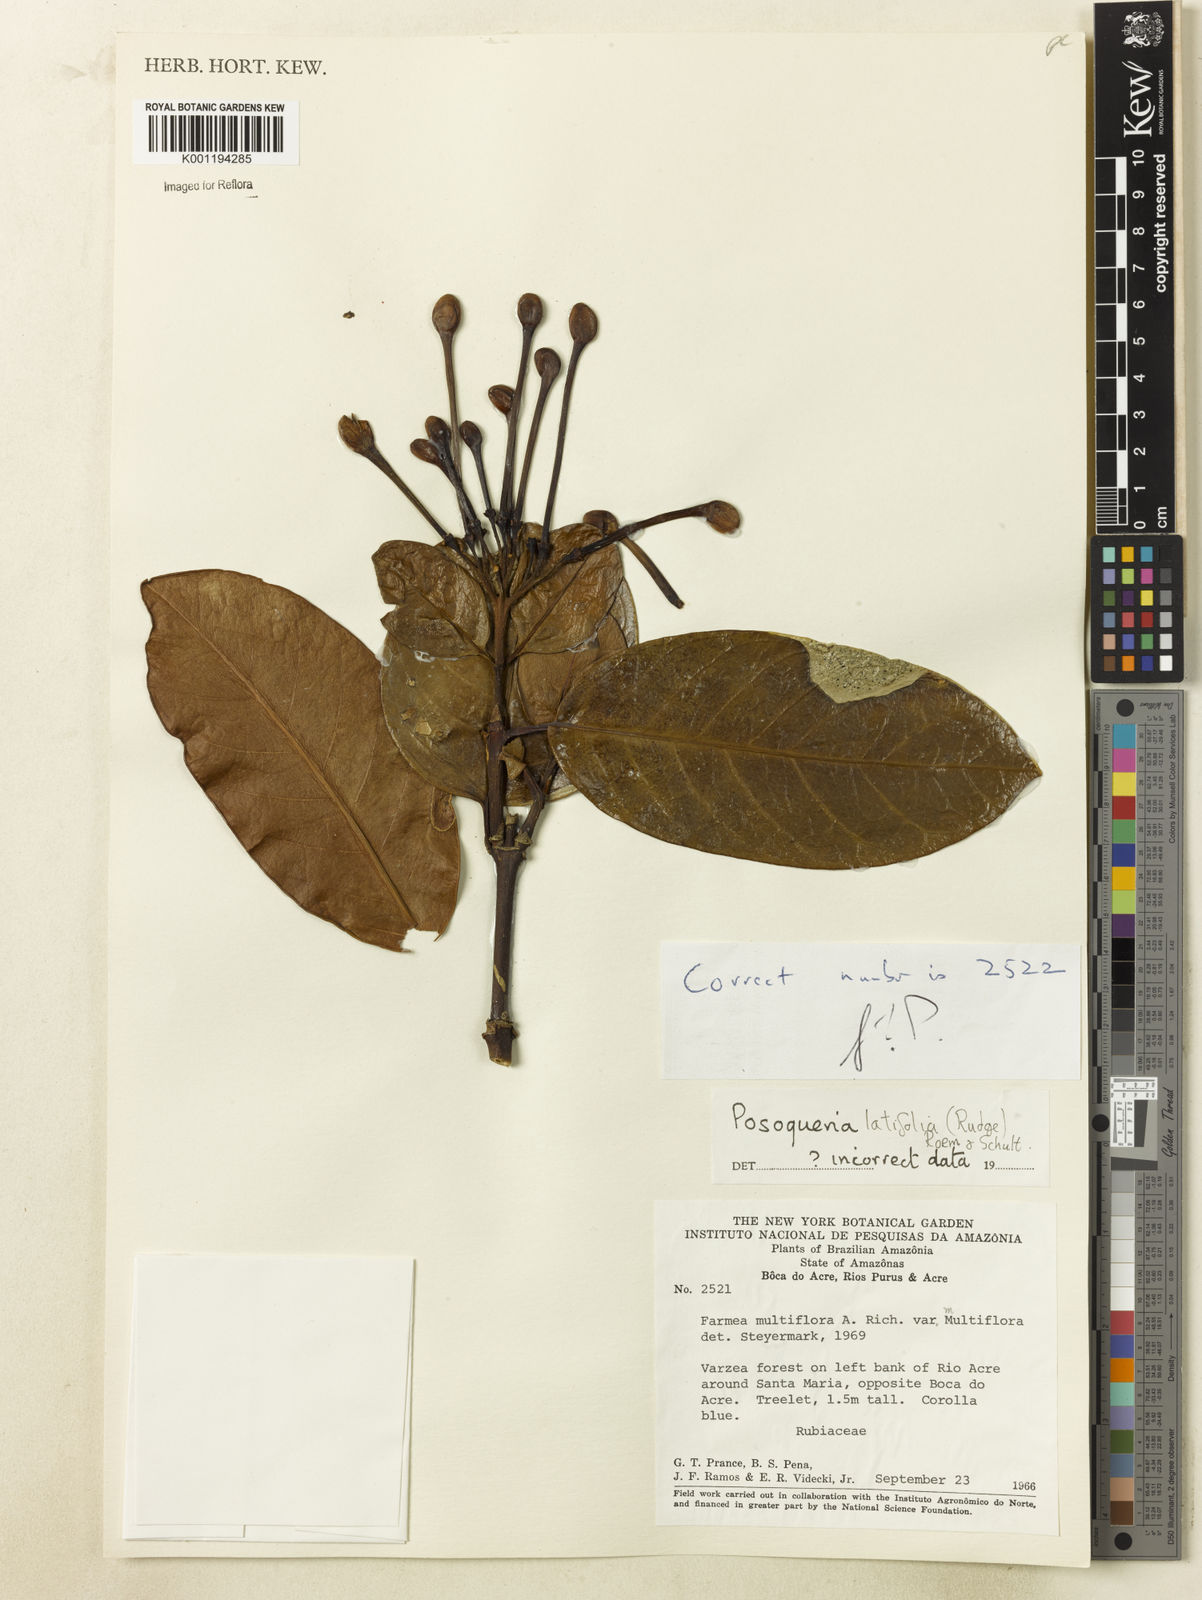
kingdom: Plantae
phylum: Tracheophyta
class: Magnoliopsida
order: Gentianales
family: Rubiaceae
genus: Posoqueria
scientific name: Posoqueria latifolia
